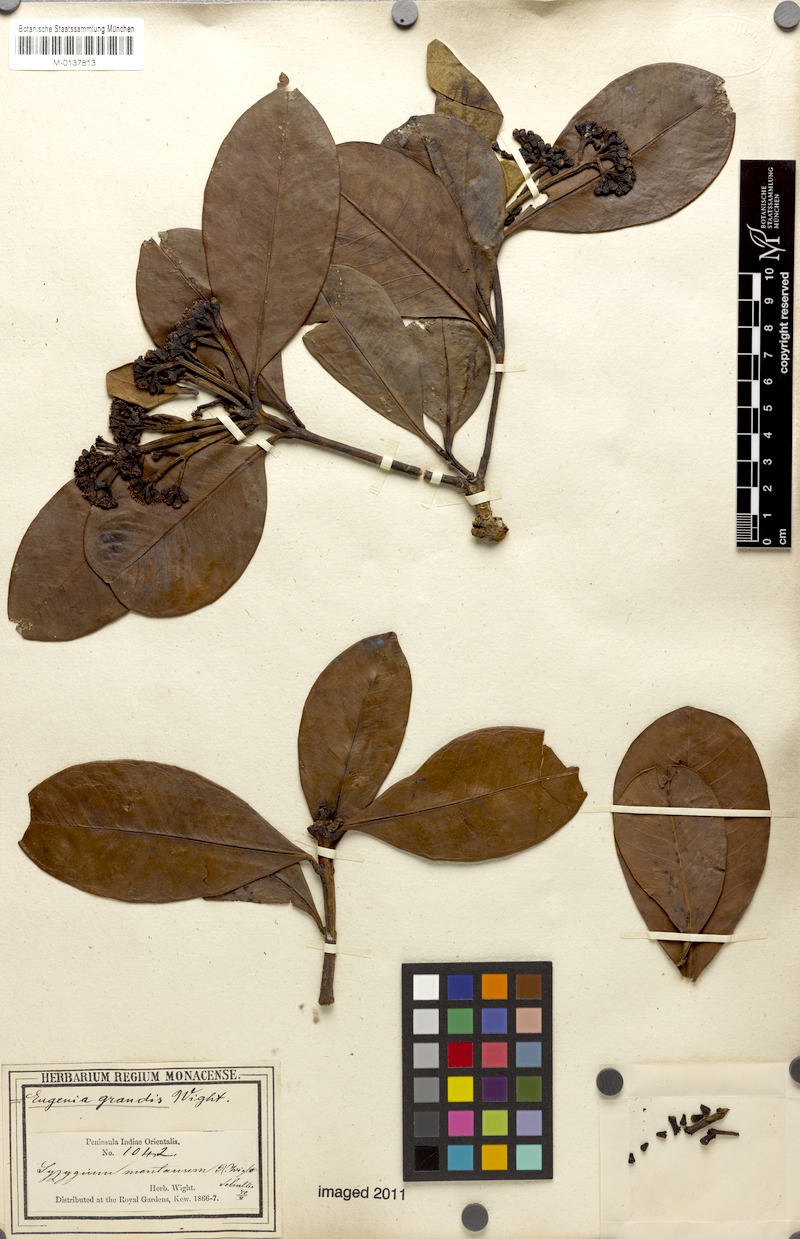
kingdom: Plantae
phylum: Tracheophyta
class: Magnoliopsida
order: Myrtales
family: Myrtaceae
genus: Syzygium
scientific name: Syzygium grande
